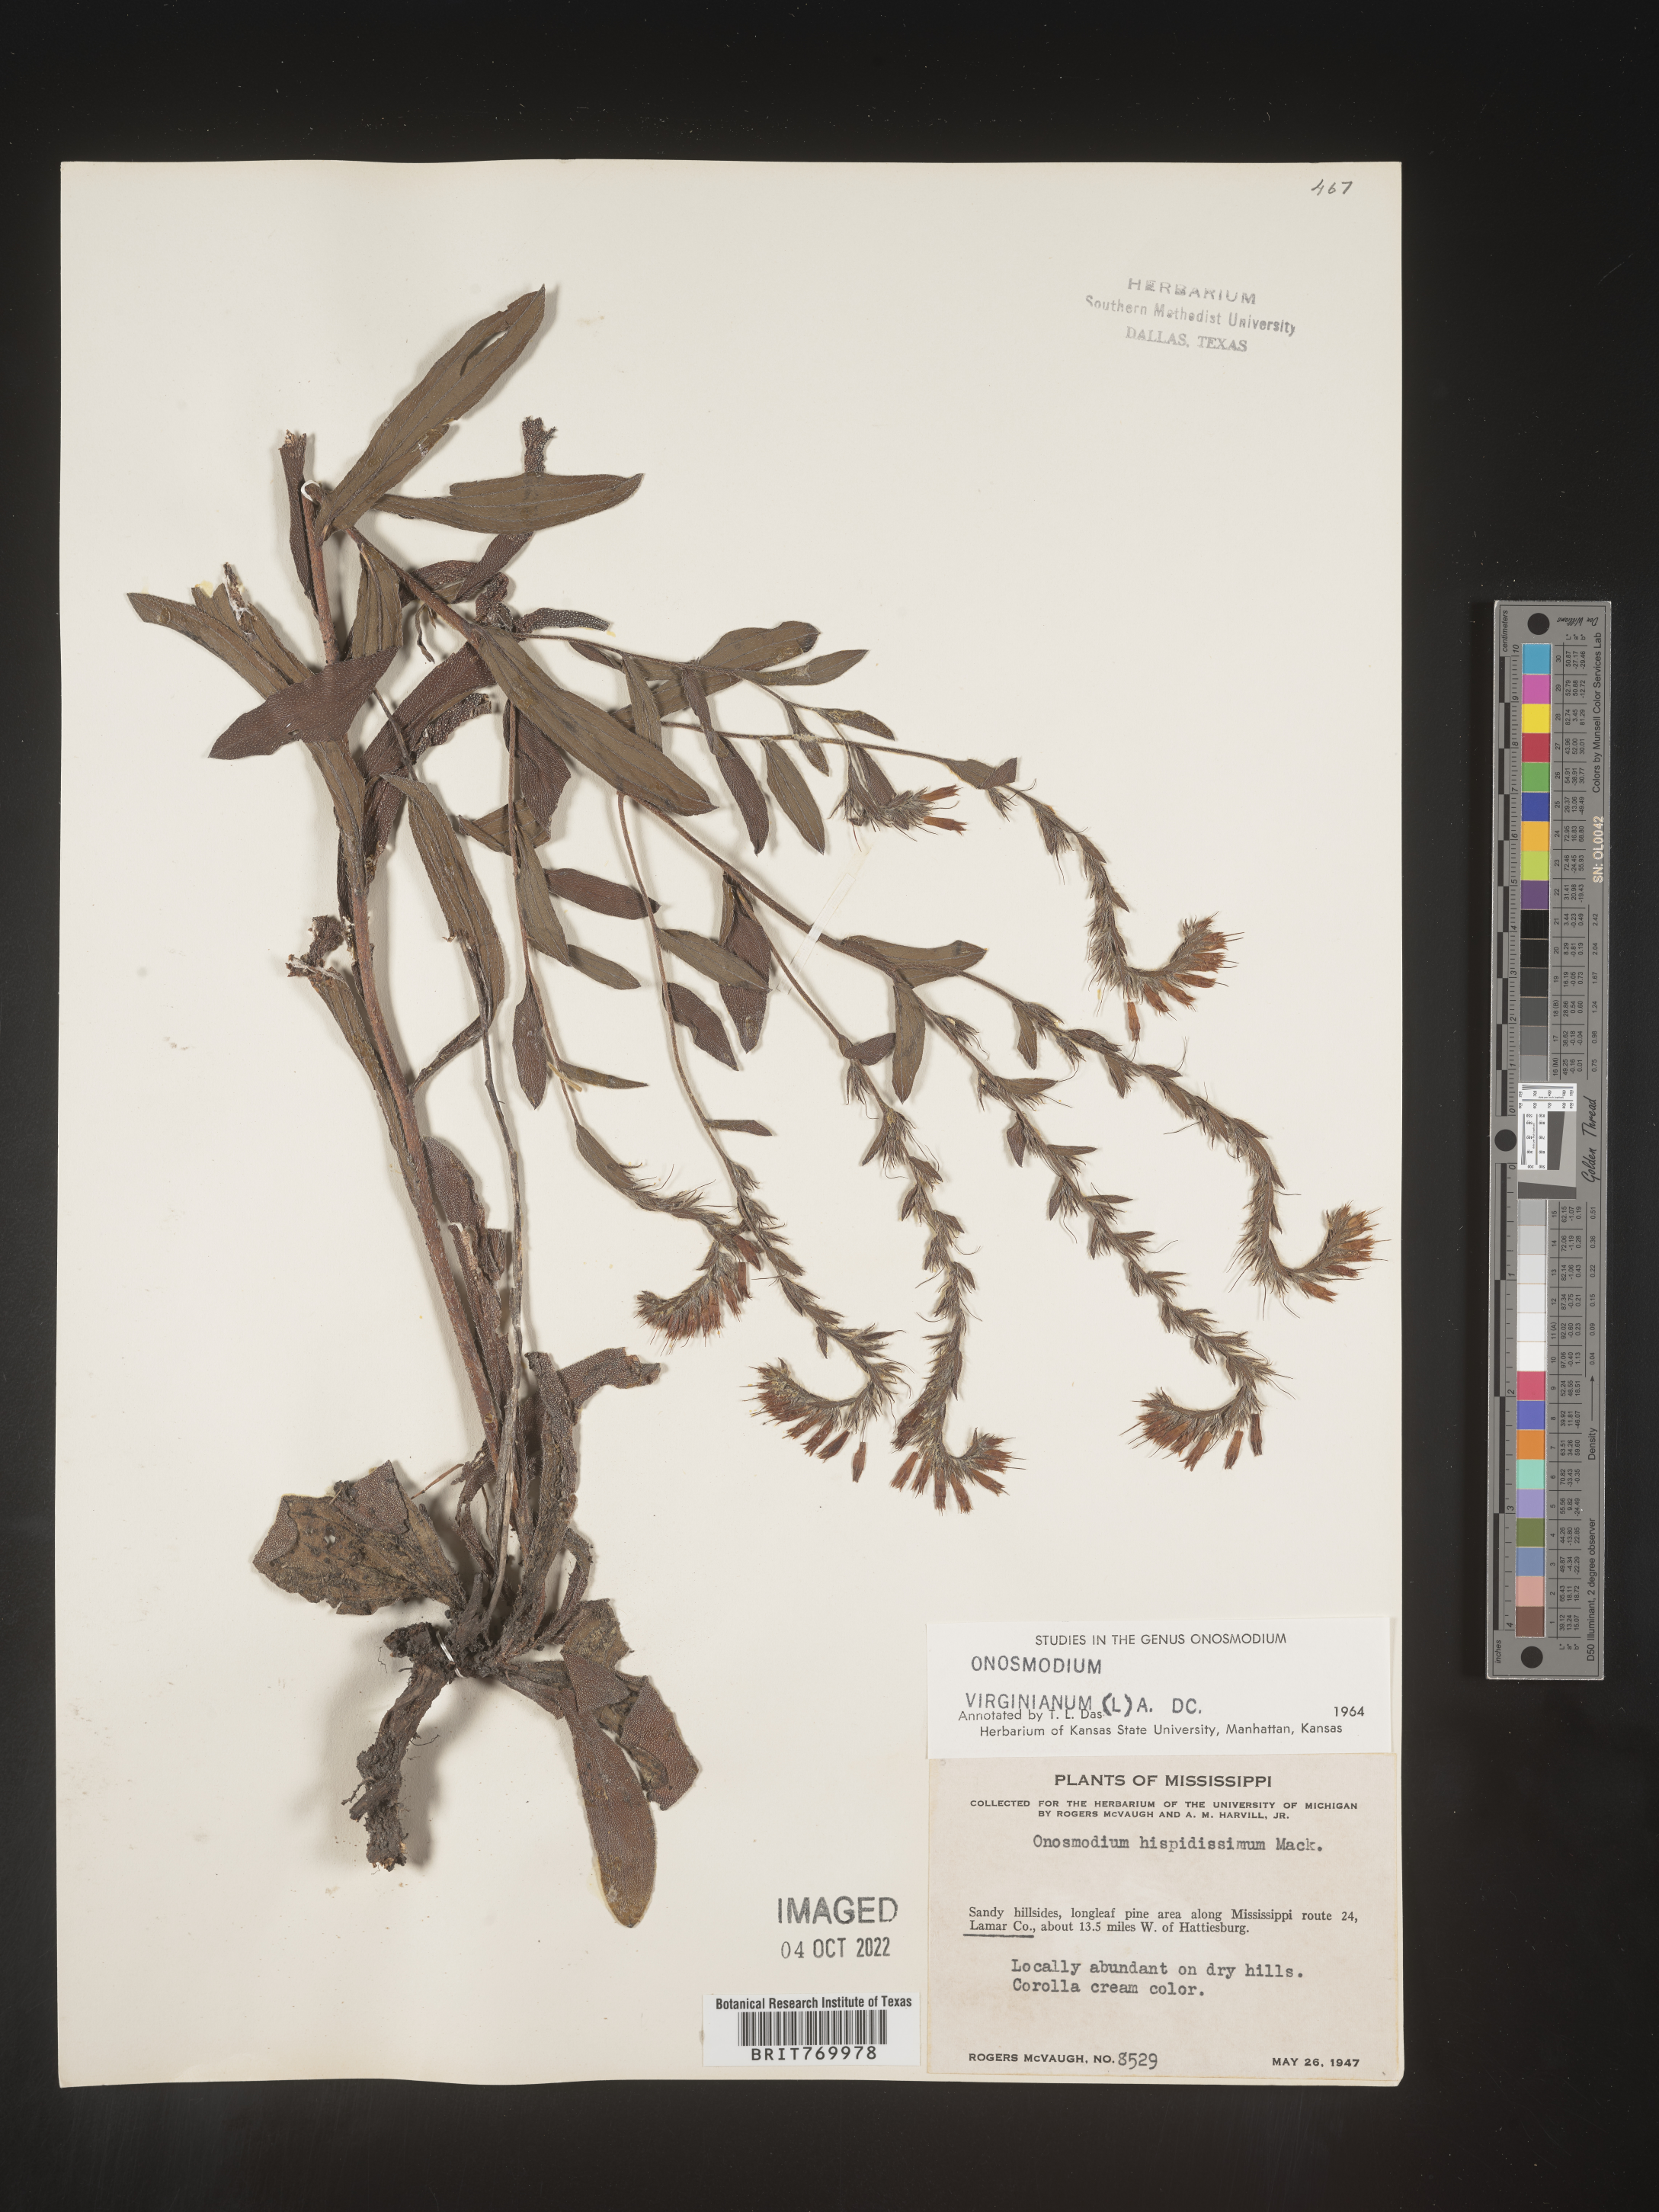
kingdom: Plantae
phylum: Tracheophyta
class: Magnoliopsida
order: Boraginales
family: Boraginaceae
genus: Lithospermum
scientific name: Lithospermum virginianum
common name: Eastern false gromwell
